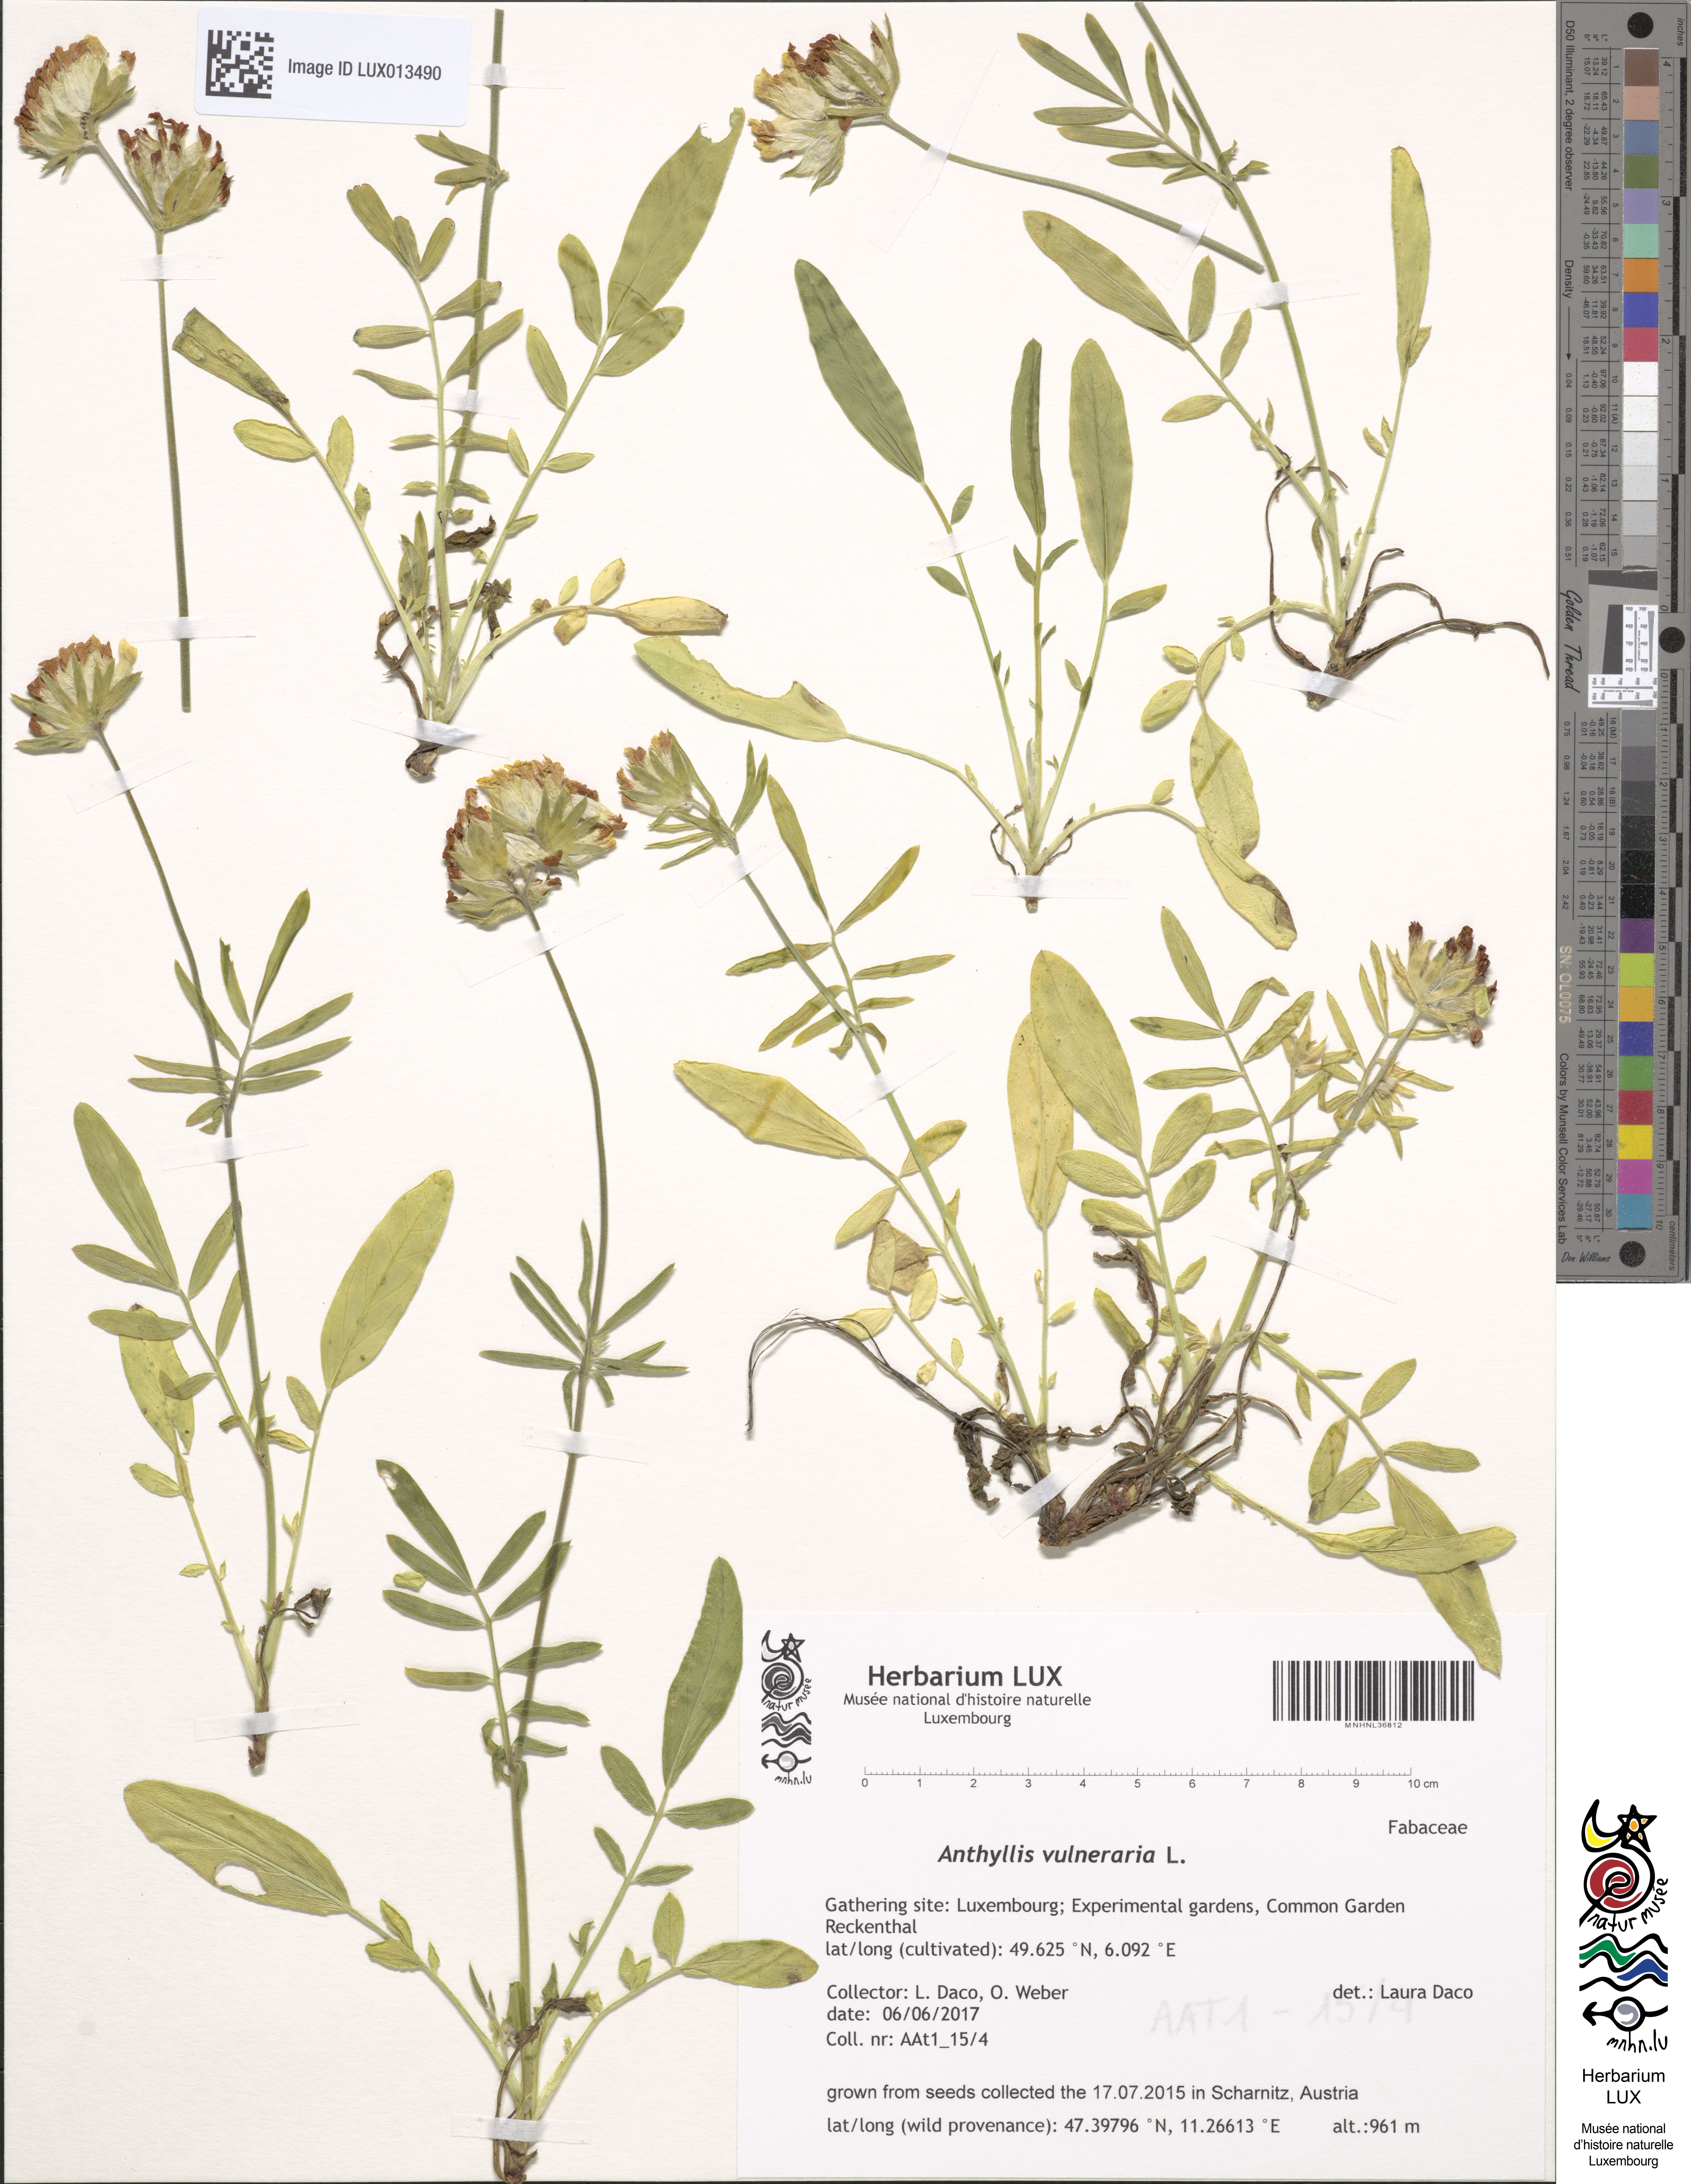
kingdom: Plantae
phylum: Tracheophyta
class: Magnoliopsida
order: Fabales
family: Fabaceae
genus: Anthyllis
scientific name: Anthyllis vulneraria
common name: Kidney vetch
